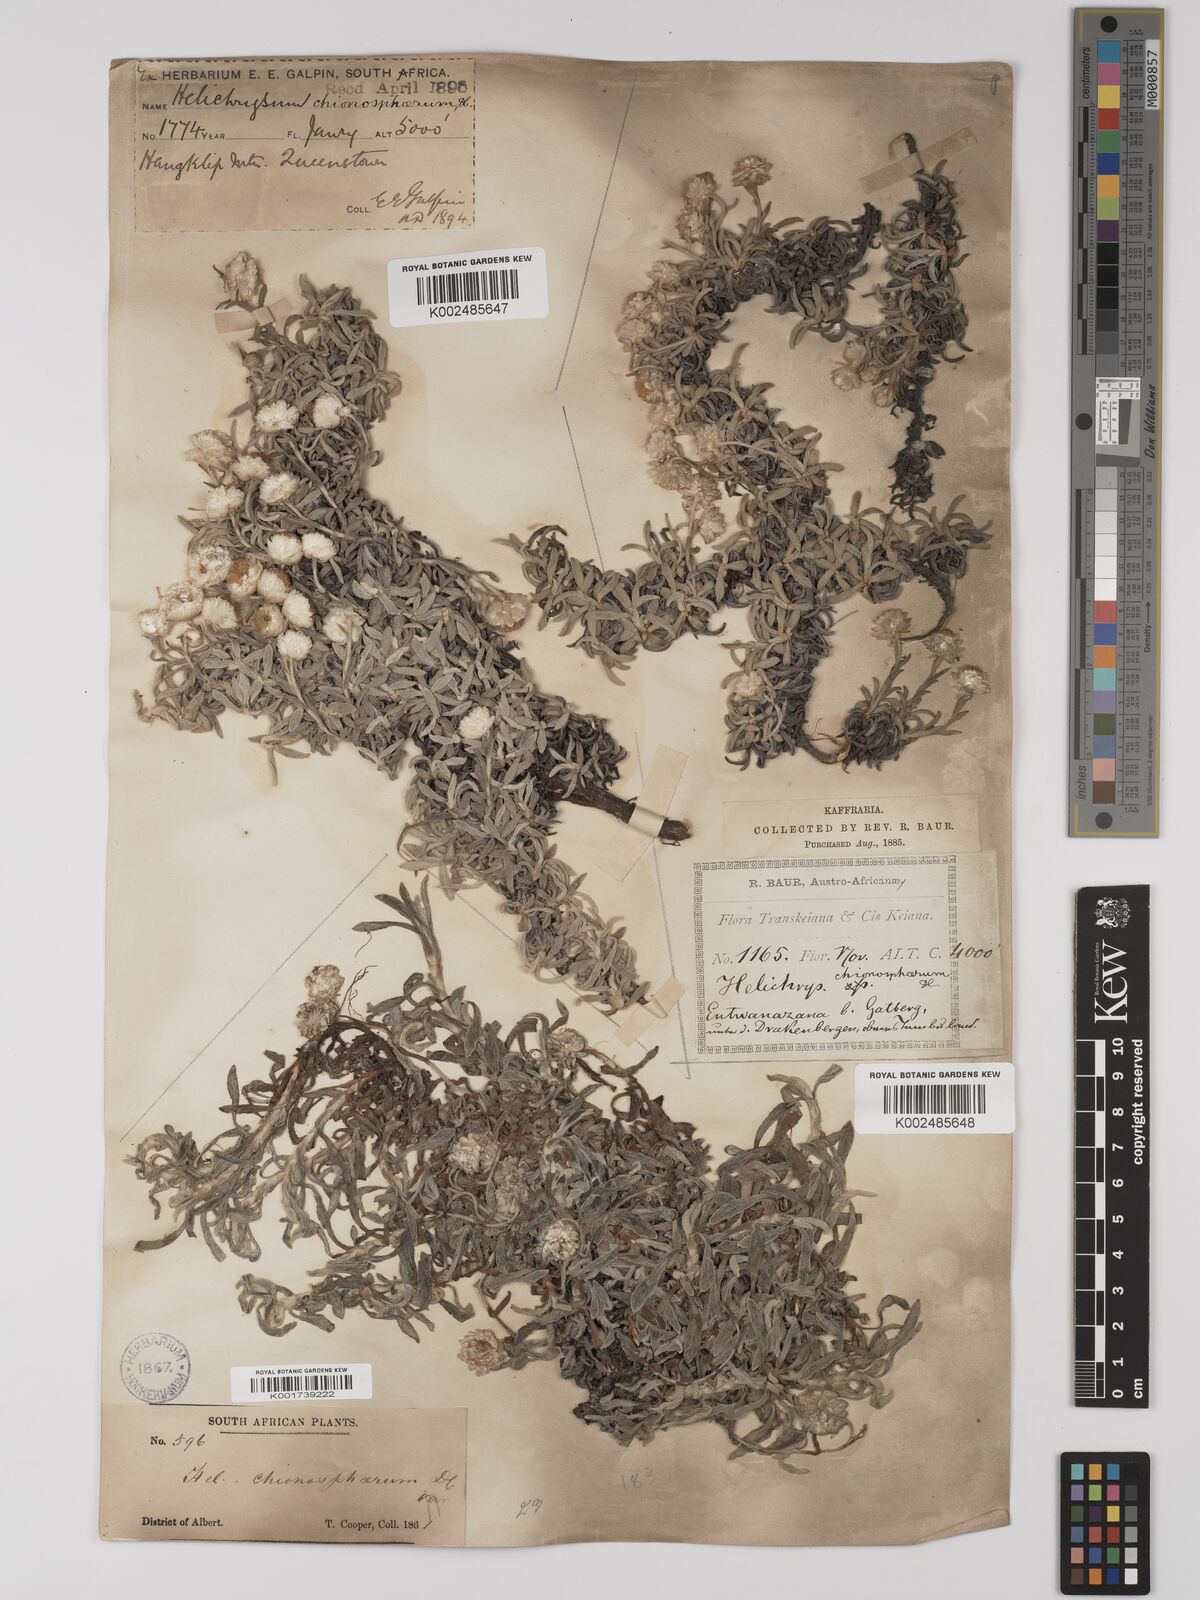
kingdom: Plantae
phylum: Tracheophyta
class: Magnoliopsida
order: Asterales
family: Asteraceae
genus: Helichrysum
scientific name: Helichrysum chionosphaerum
